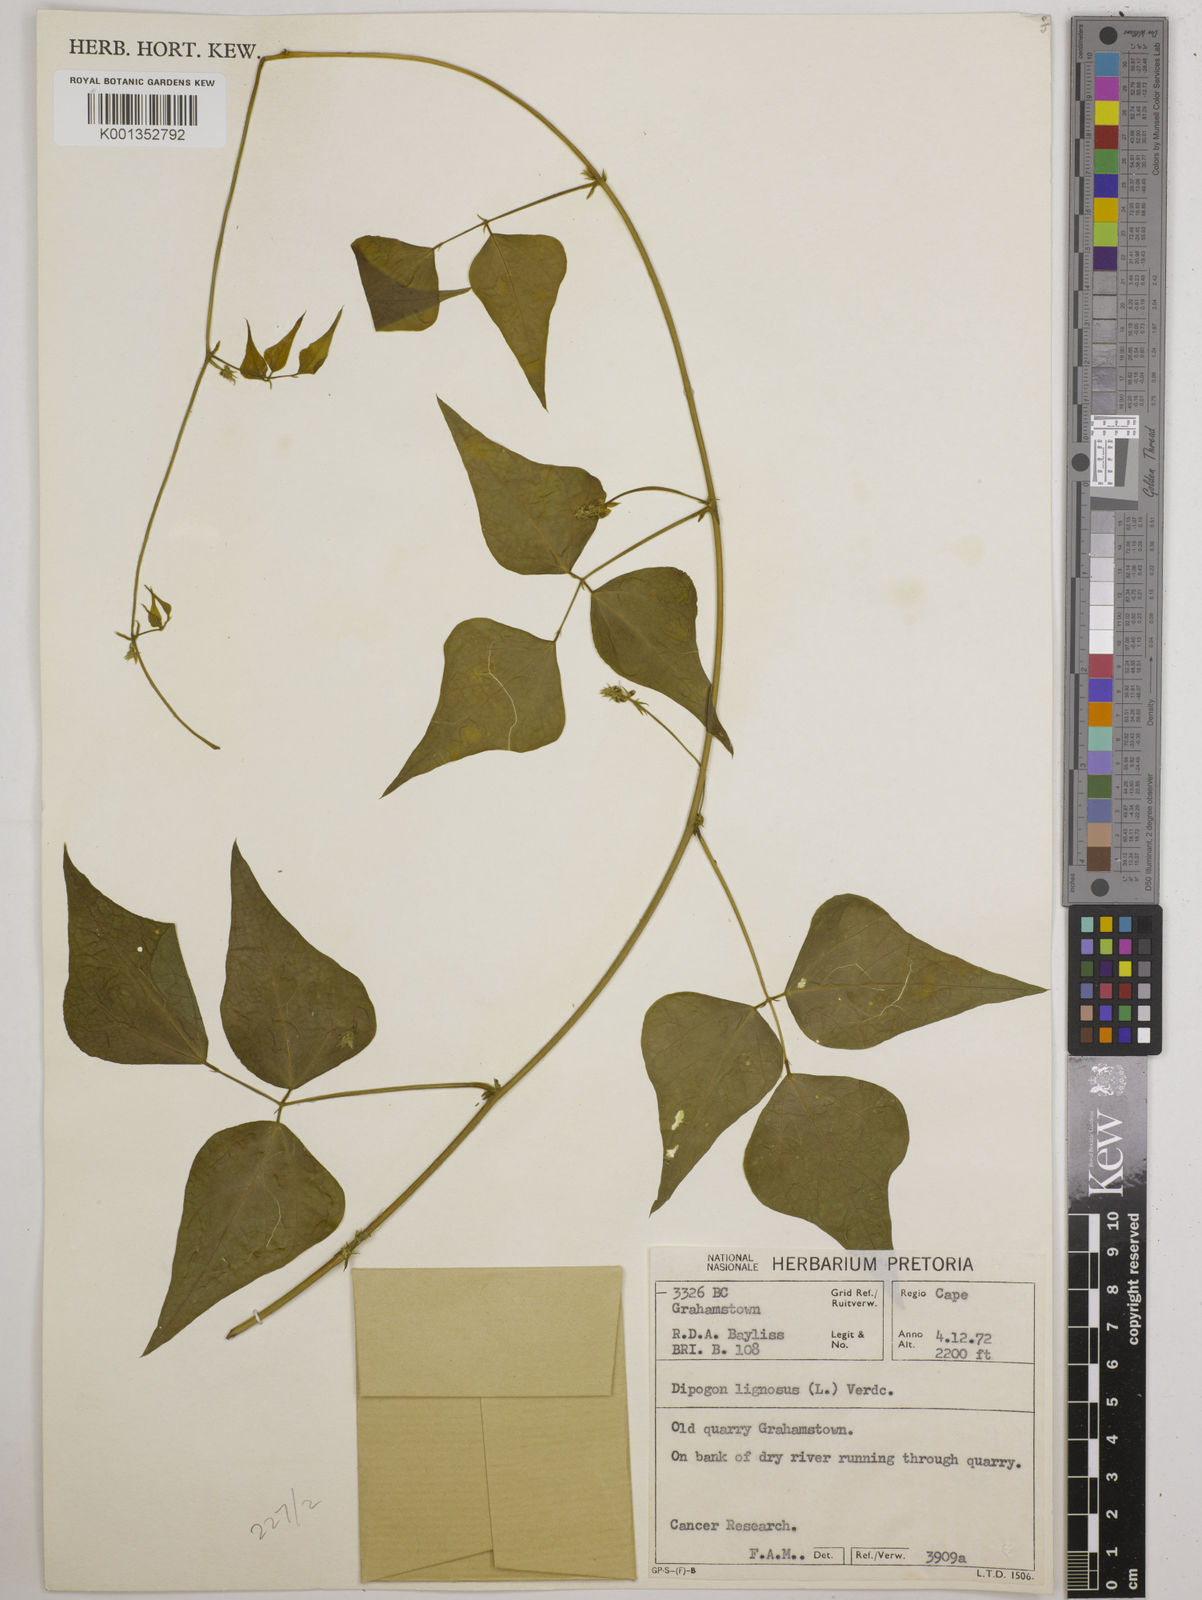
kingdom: Plantae
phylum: Tracheophyta
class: Magnoliopsida
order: Fabales
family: Fabaceae
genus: Dipogon
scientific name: Dipogon lignosus
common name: Okie bean
